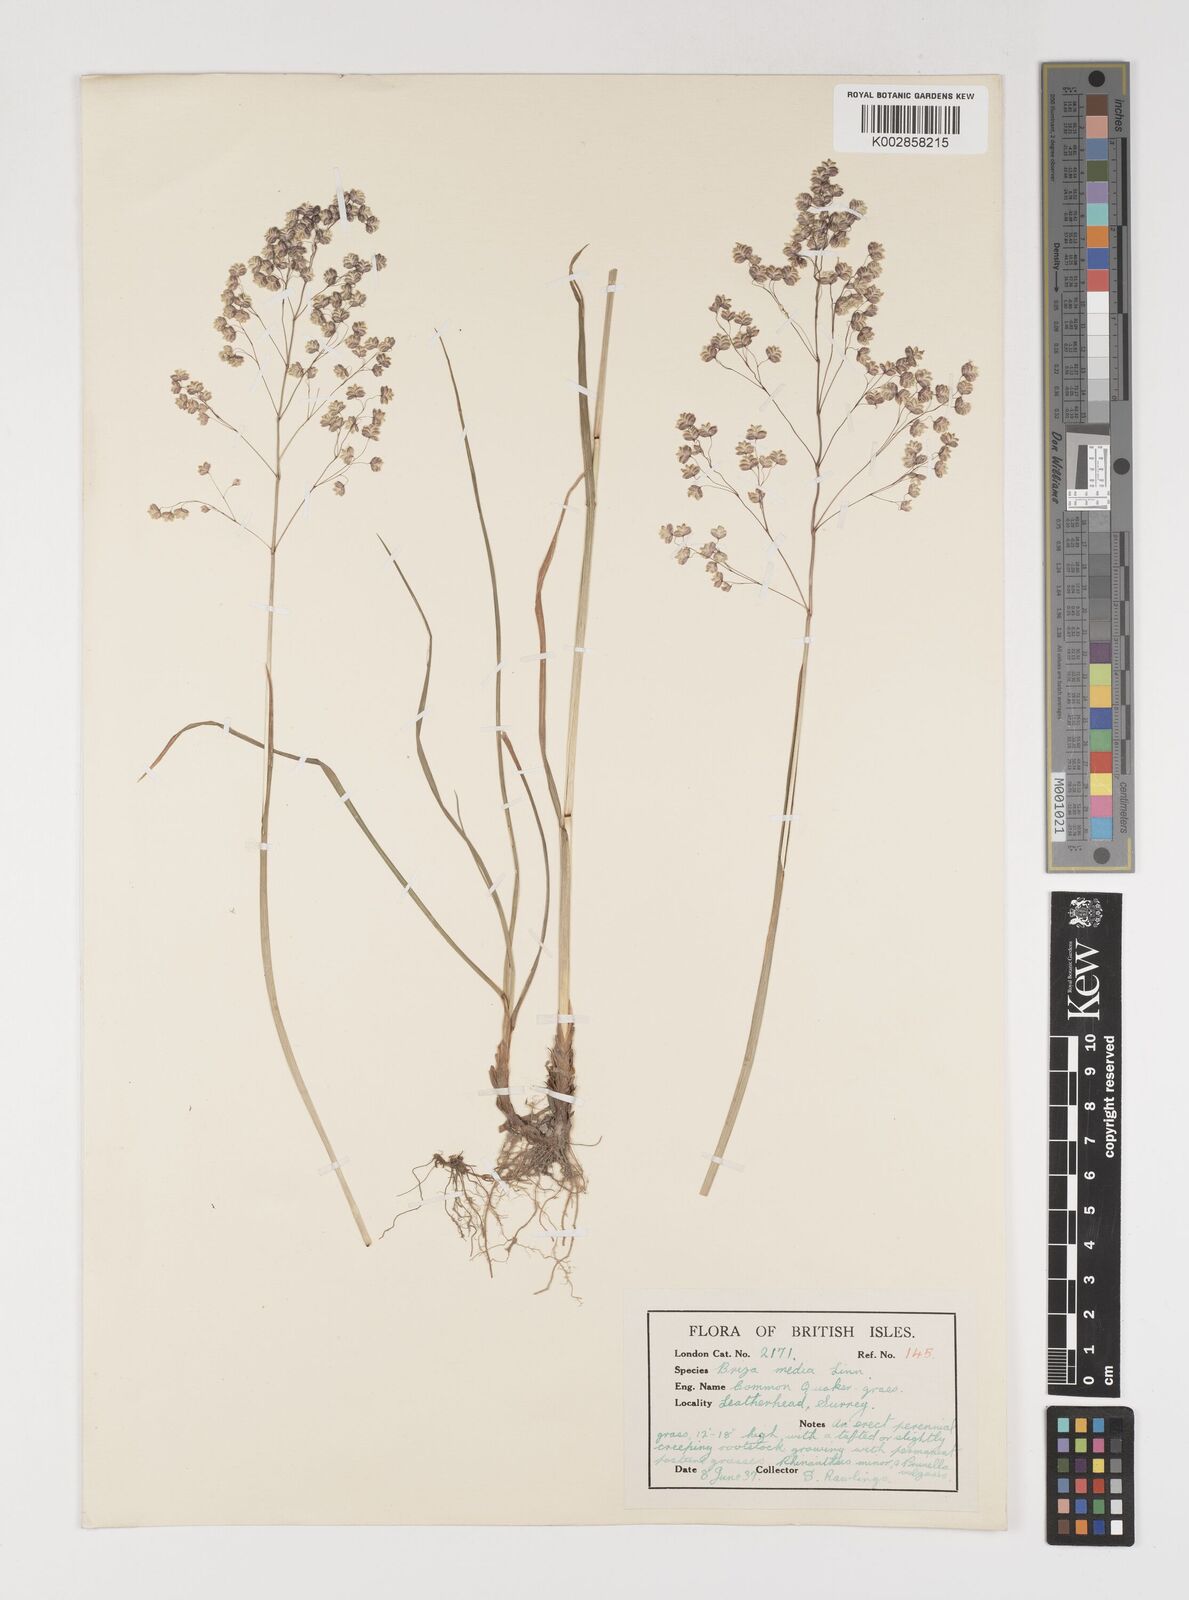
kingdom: Plantae
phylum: Tracheophyta
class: Liliopsida
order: Poales
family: Poaceae
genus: Briza
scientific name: Briza media
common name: Quaking grass
